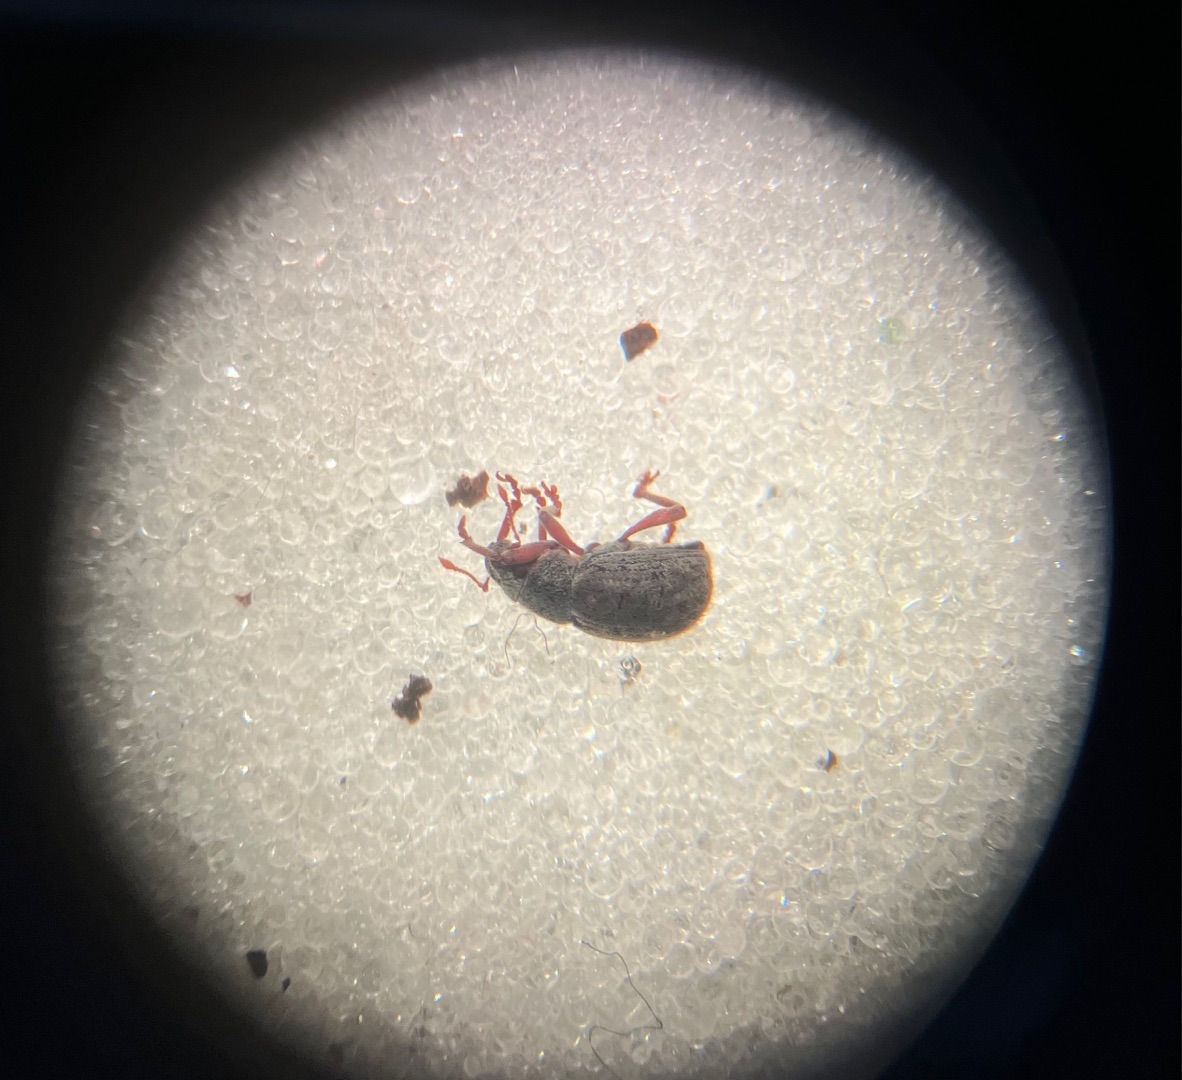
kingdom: Animalia
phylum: Arthropoda
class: Insecta
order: Coleoptera
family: Curculionidae
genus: Strophosoma
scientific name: Strophosoma capitatum
